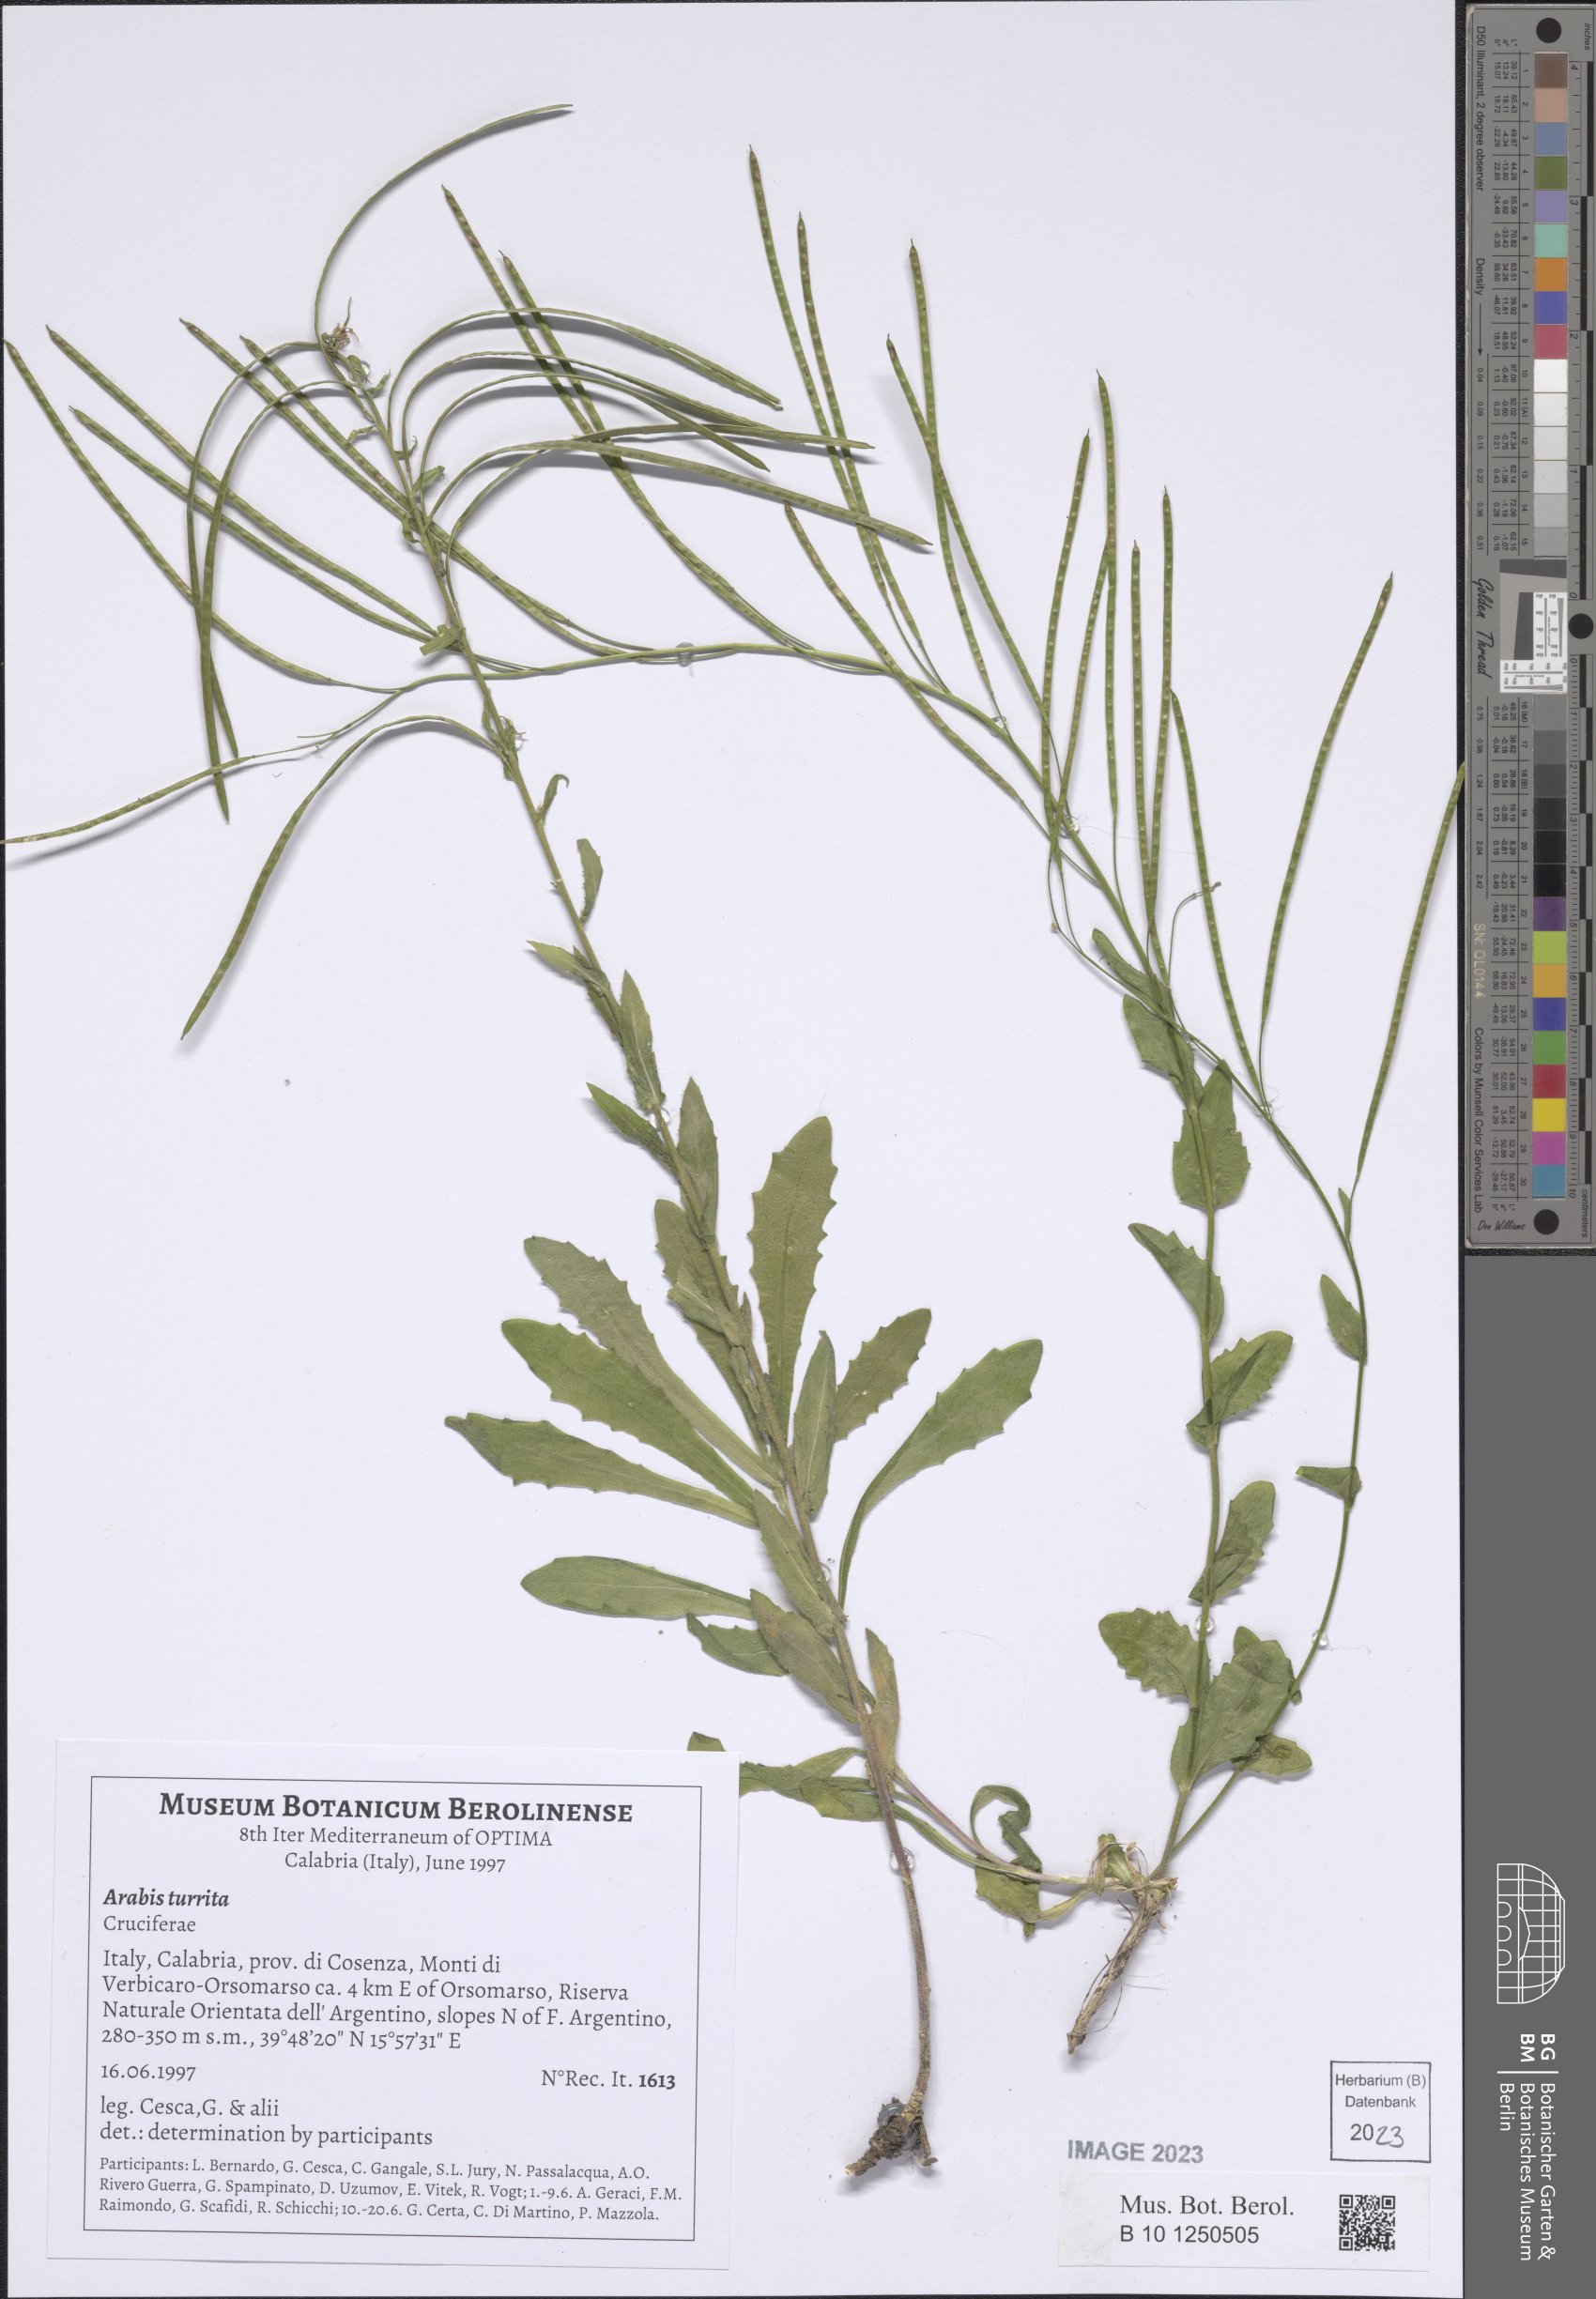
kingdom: Plantae
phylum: Tracheophyta
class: Magnoliopsida
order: Brassicales
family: Brassicaceae
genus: Pseudoturritis
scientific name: Pseudoturritis turrita
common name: Tower cress
